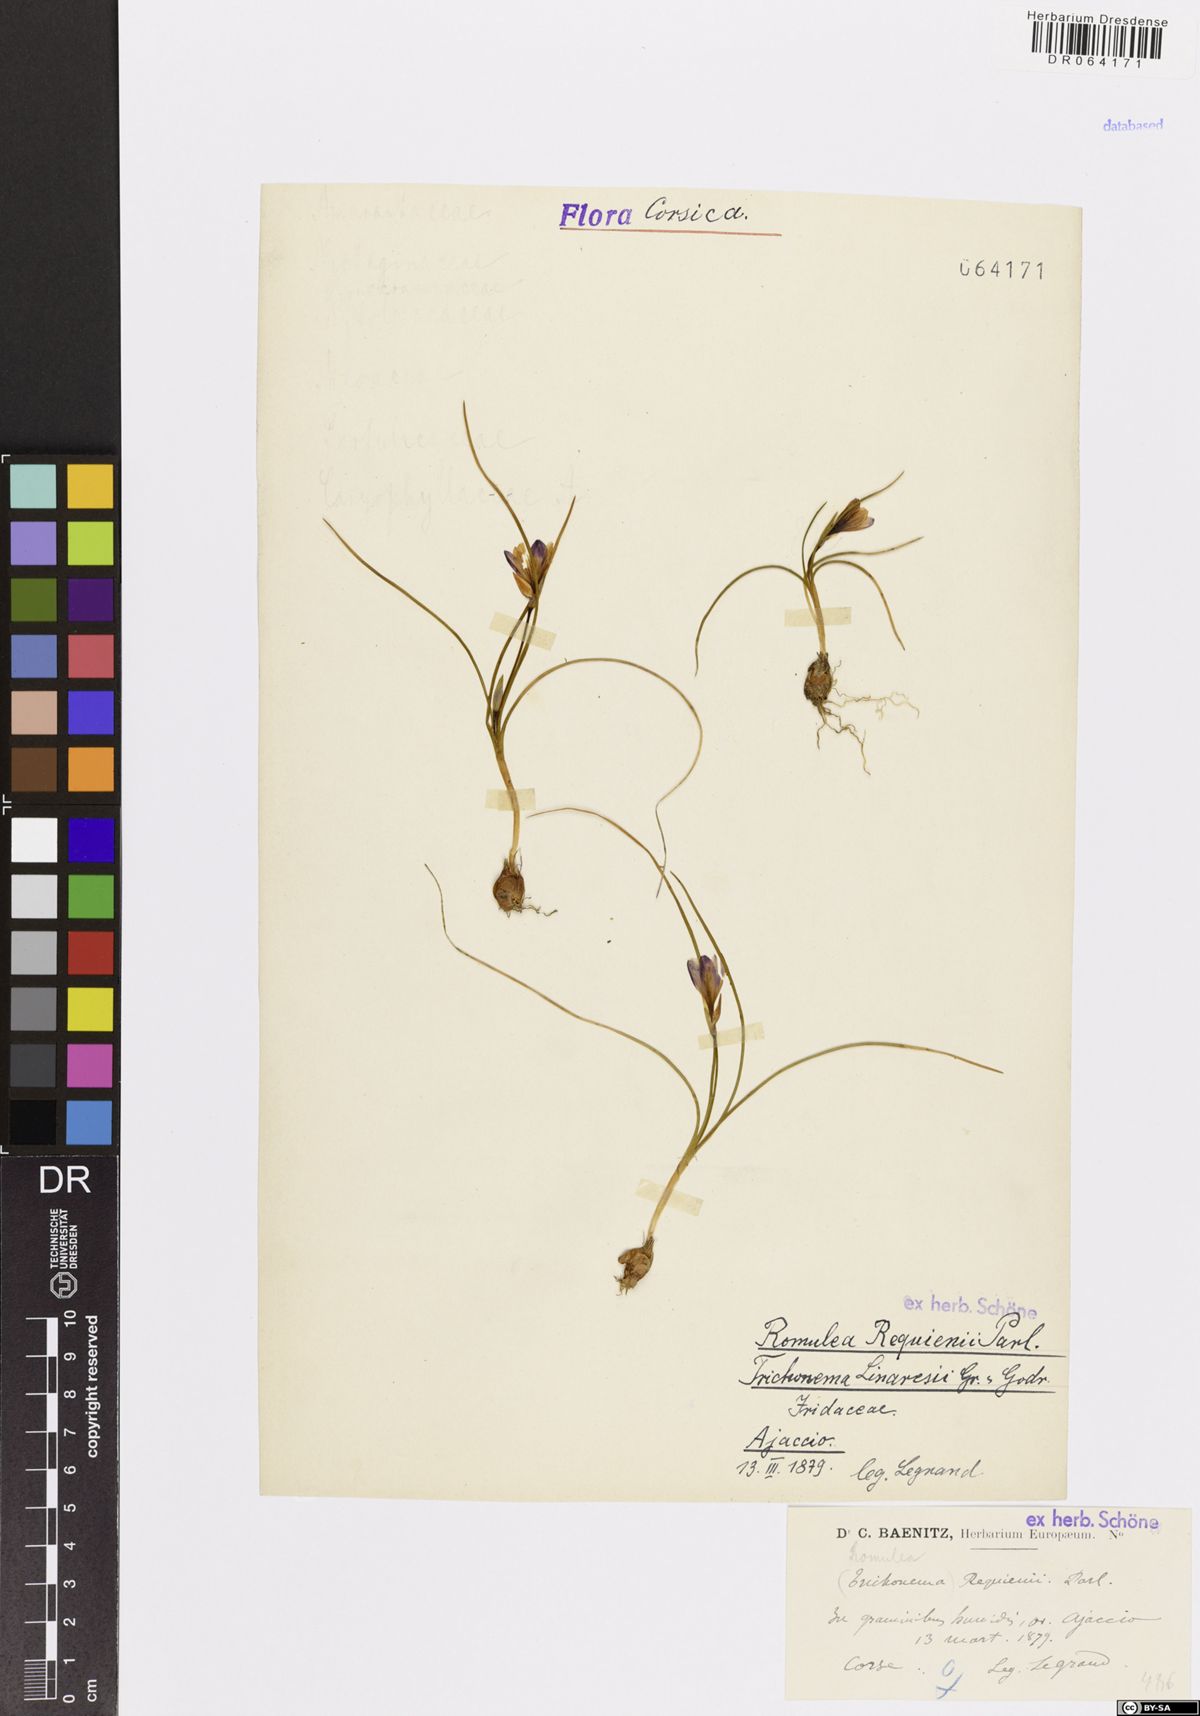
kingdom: Plantae
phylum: Tracheophyta
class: Liliopsida
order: Asparagales
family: Iridaceae
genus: Romulea
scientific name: Romulea requienii
